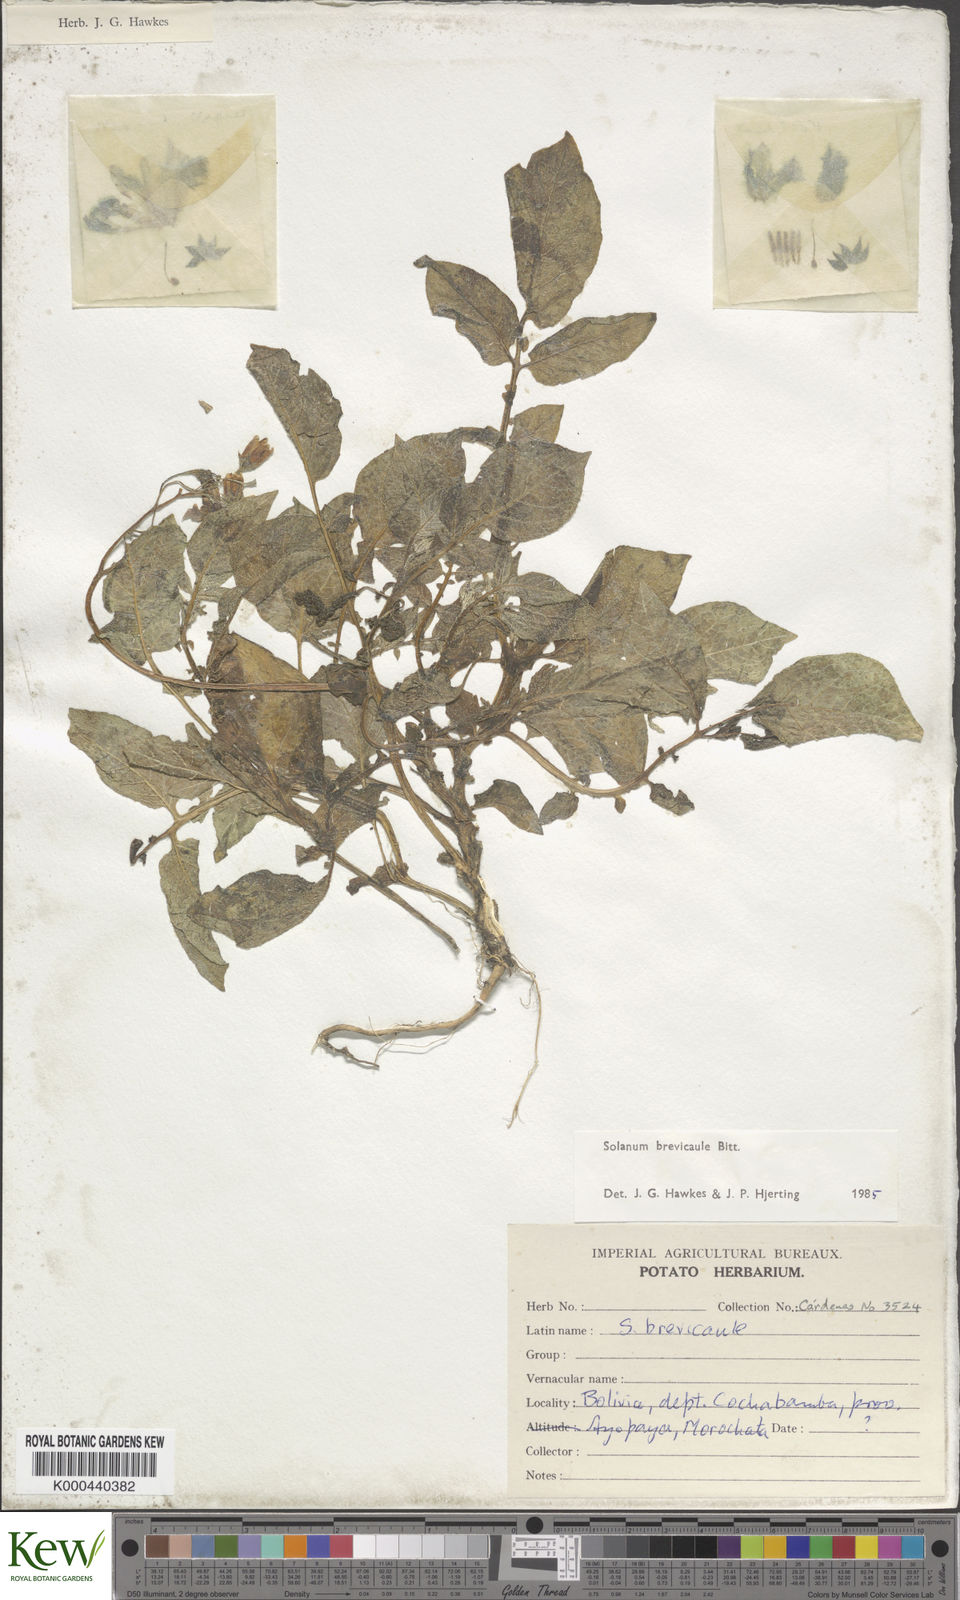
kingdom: Plantae
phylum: Tracheophyta
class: Magnoliopsida
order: Solanales
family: Solanaceae
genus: Solanum
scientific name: Solanum brevicaule
